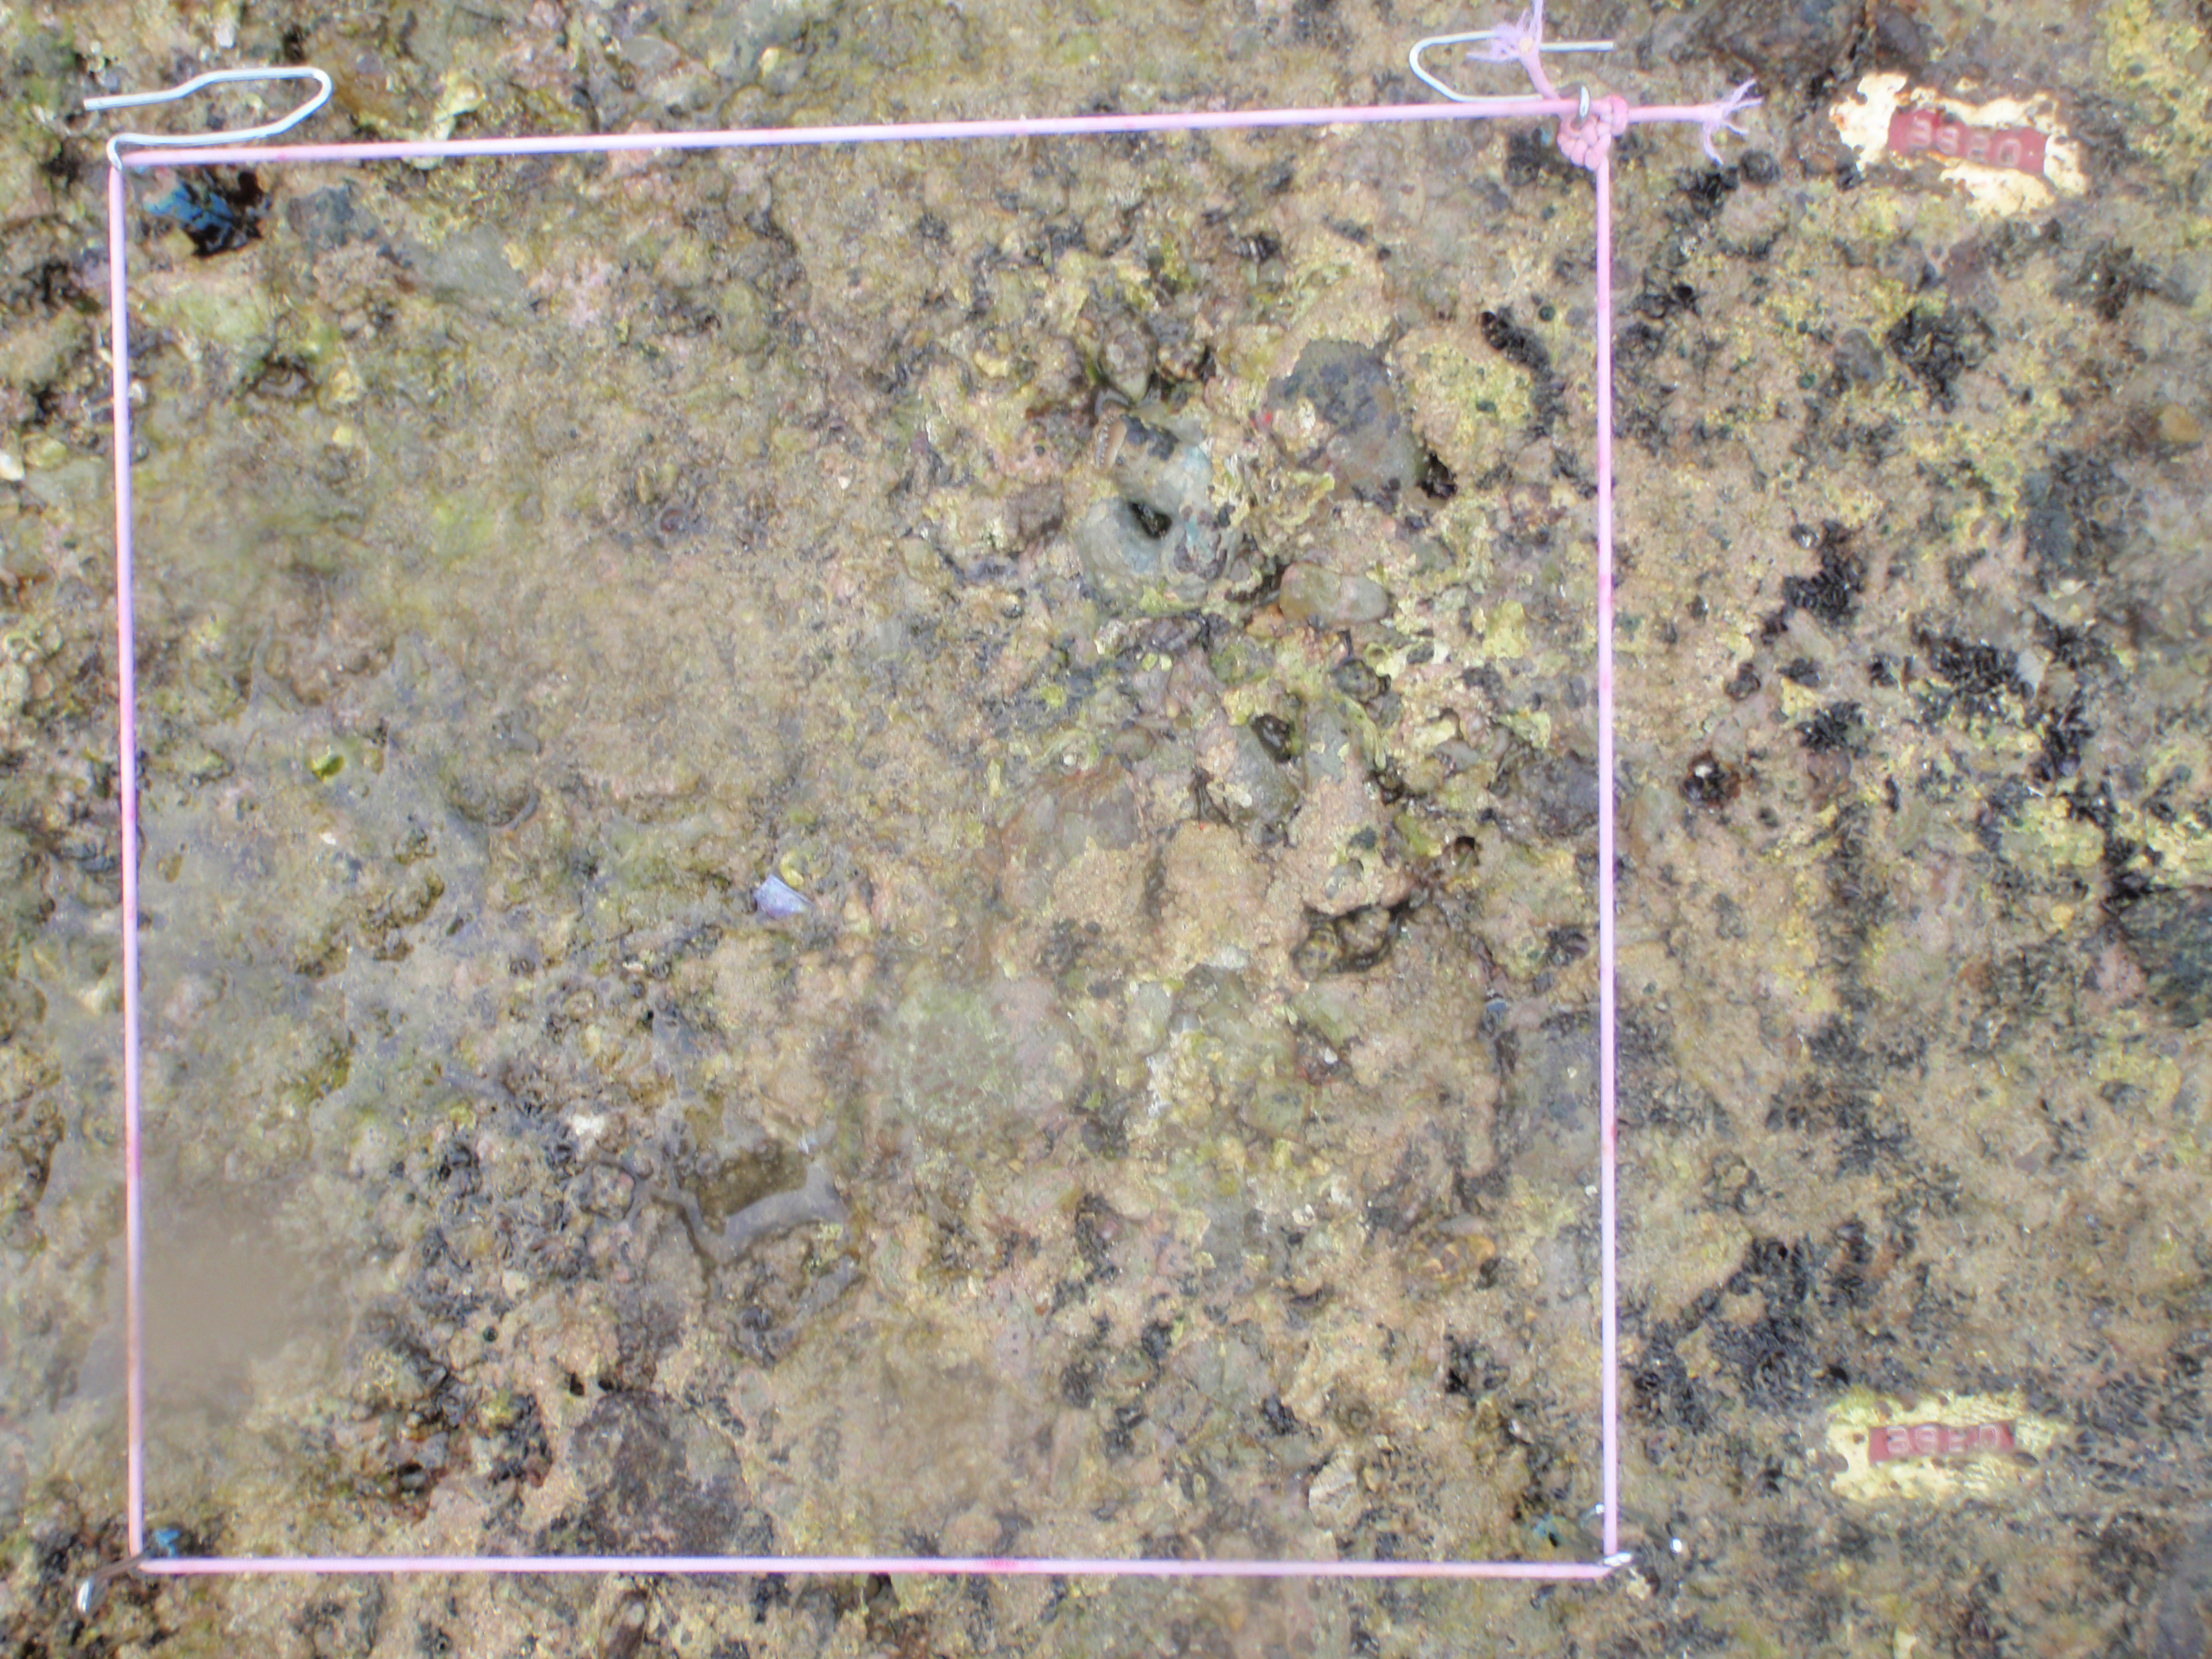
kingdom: Animalia
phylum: Mollusca
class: Bivalvia
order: Mytilida
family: Mytilidae
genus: Brachidontes
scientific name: Brachidontes mutabilis
